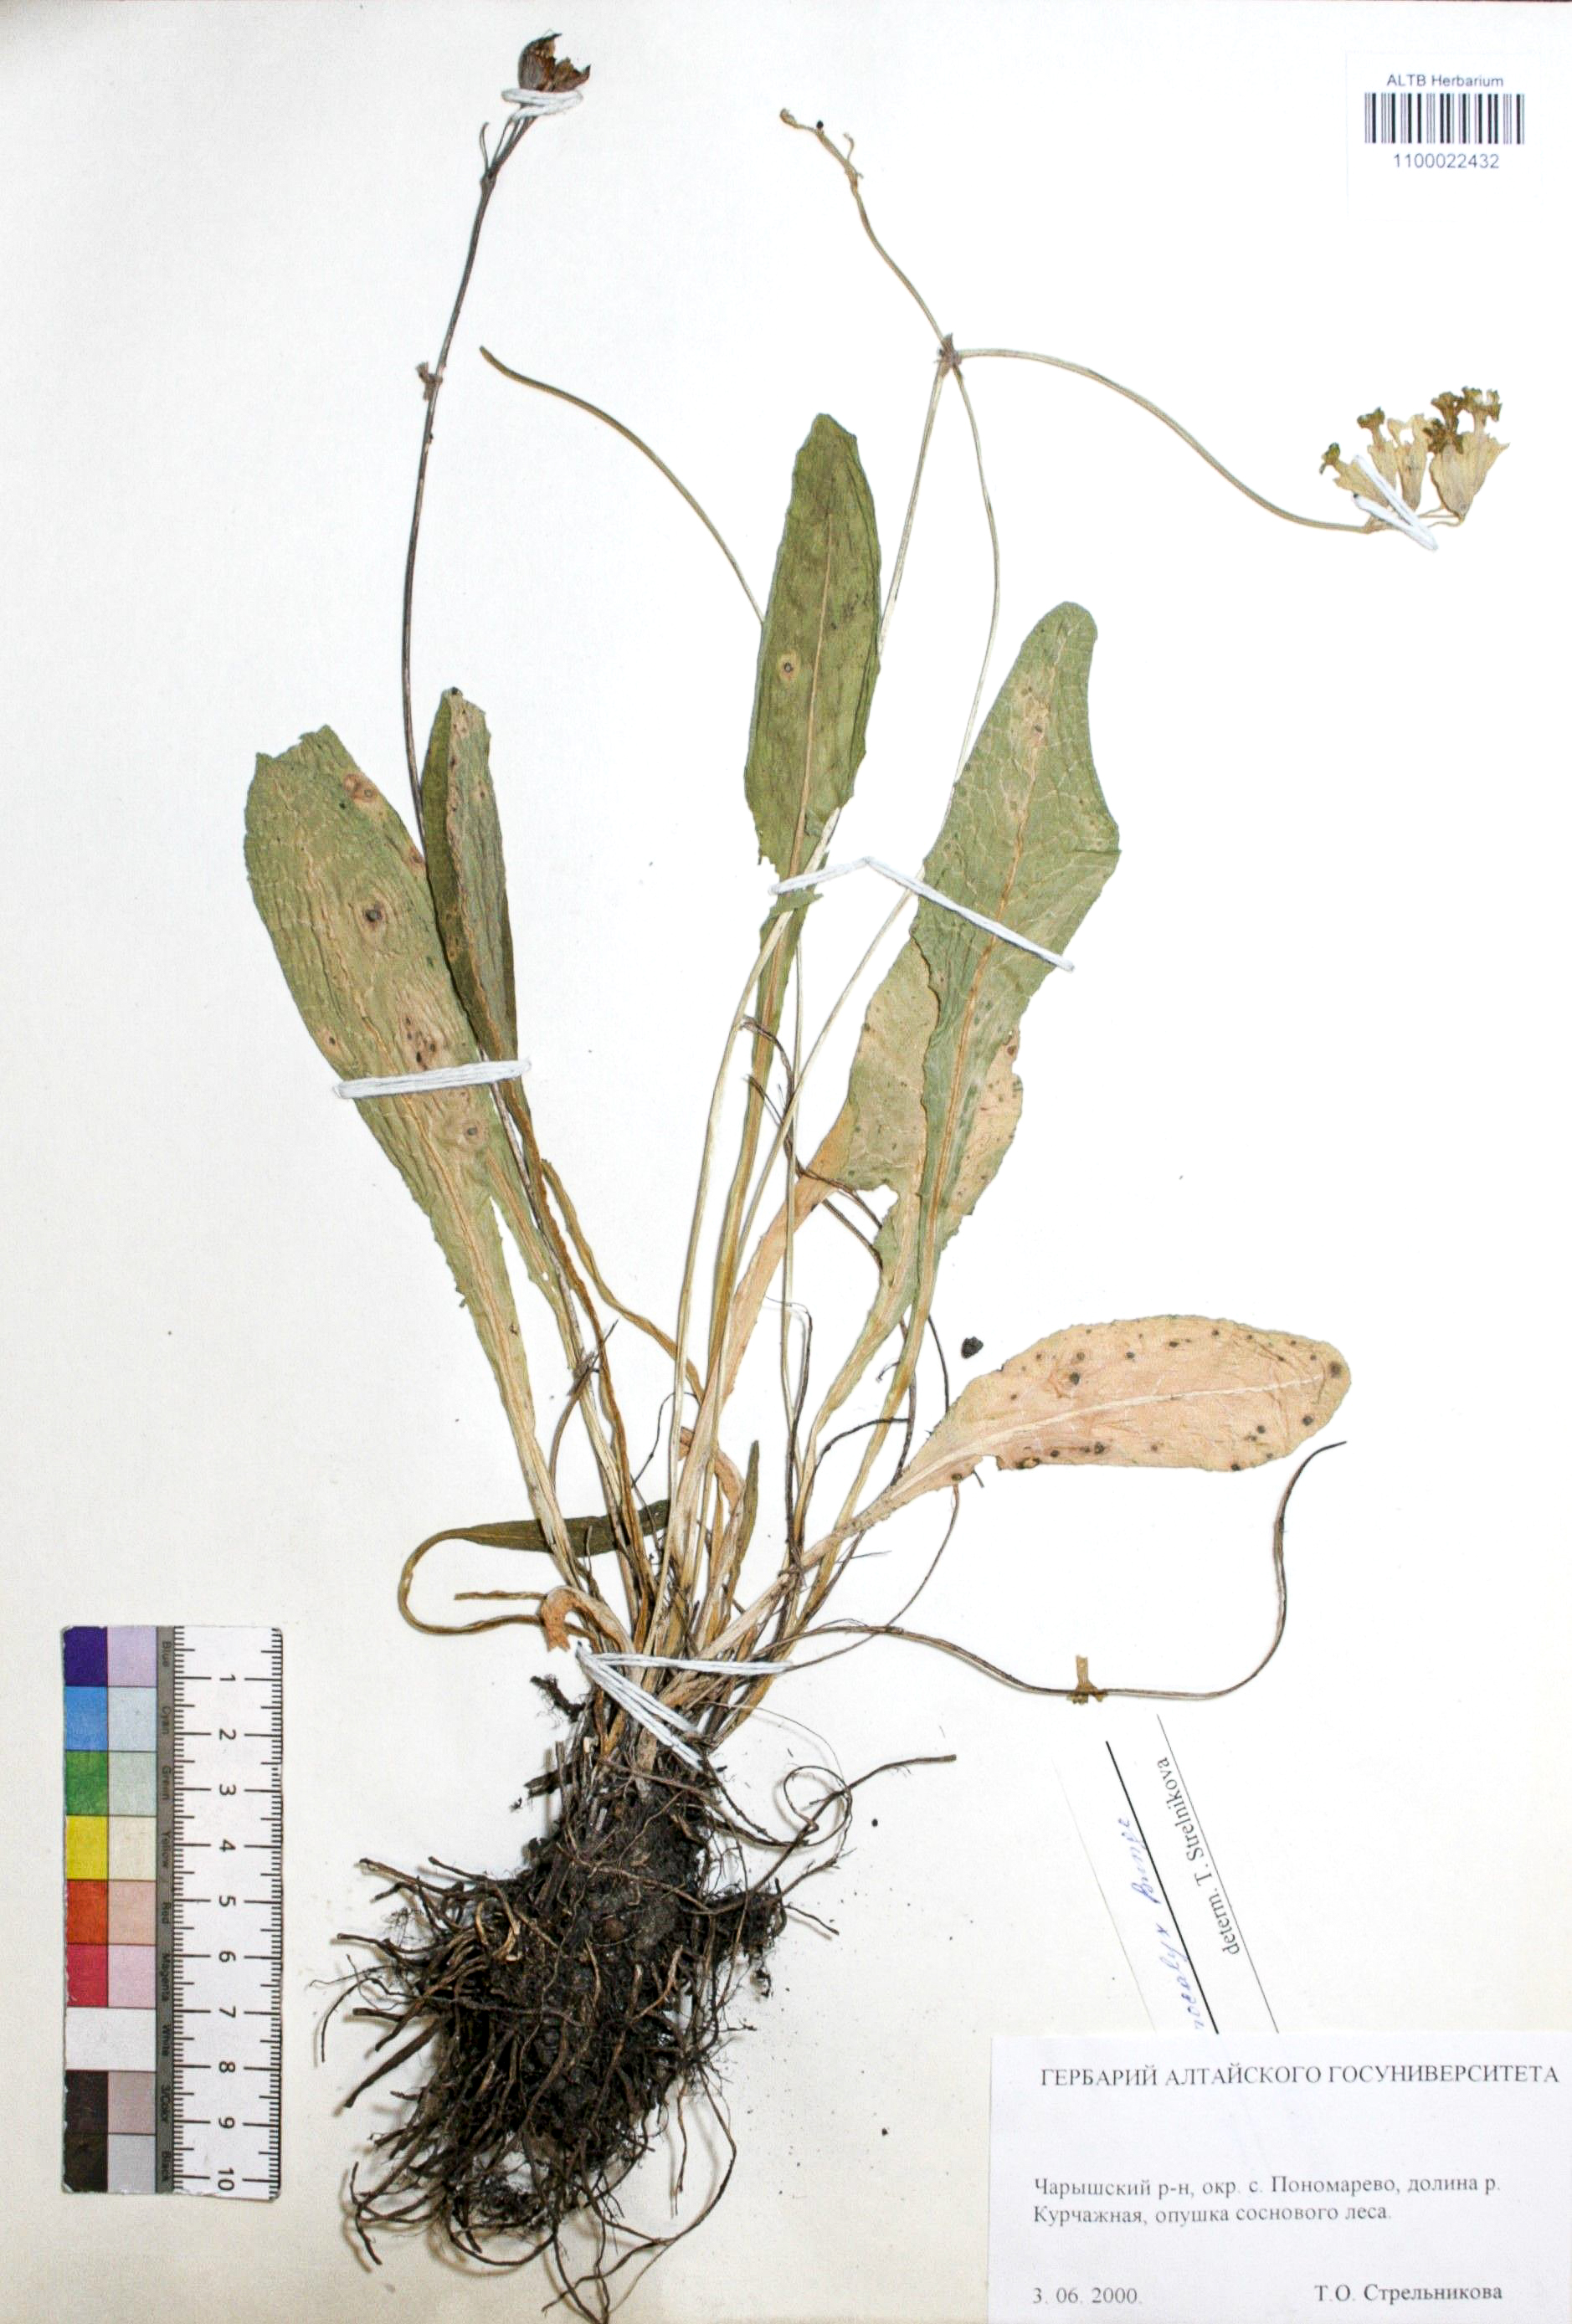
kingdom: Plantae
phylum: Tracheophyta
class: Magnoliopsida
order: Ericales
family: Primulaceae
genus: Primula
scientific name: Primula veris
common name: Cowslip
